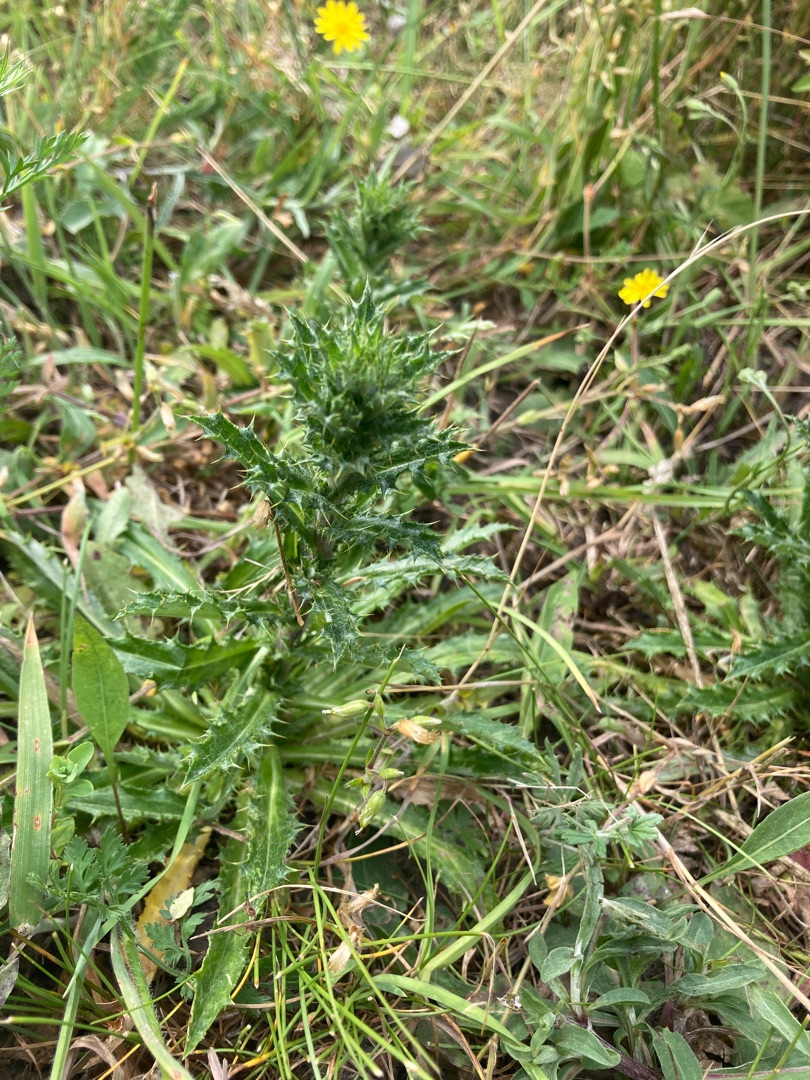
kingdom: Plantae
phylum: Tracheophyta
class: Magnoliopsida
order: Asterales
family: Asteraceae
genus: Carlina
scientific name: Carlina vulgaris
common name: Bakketidsel
